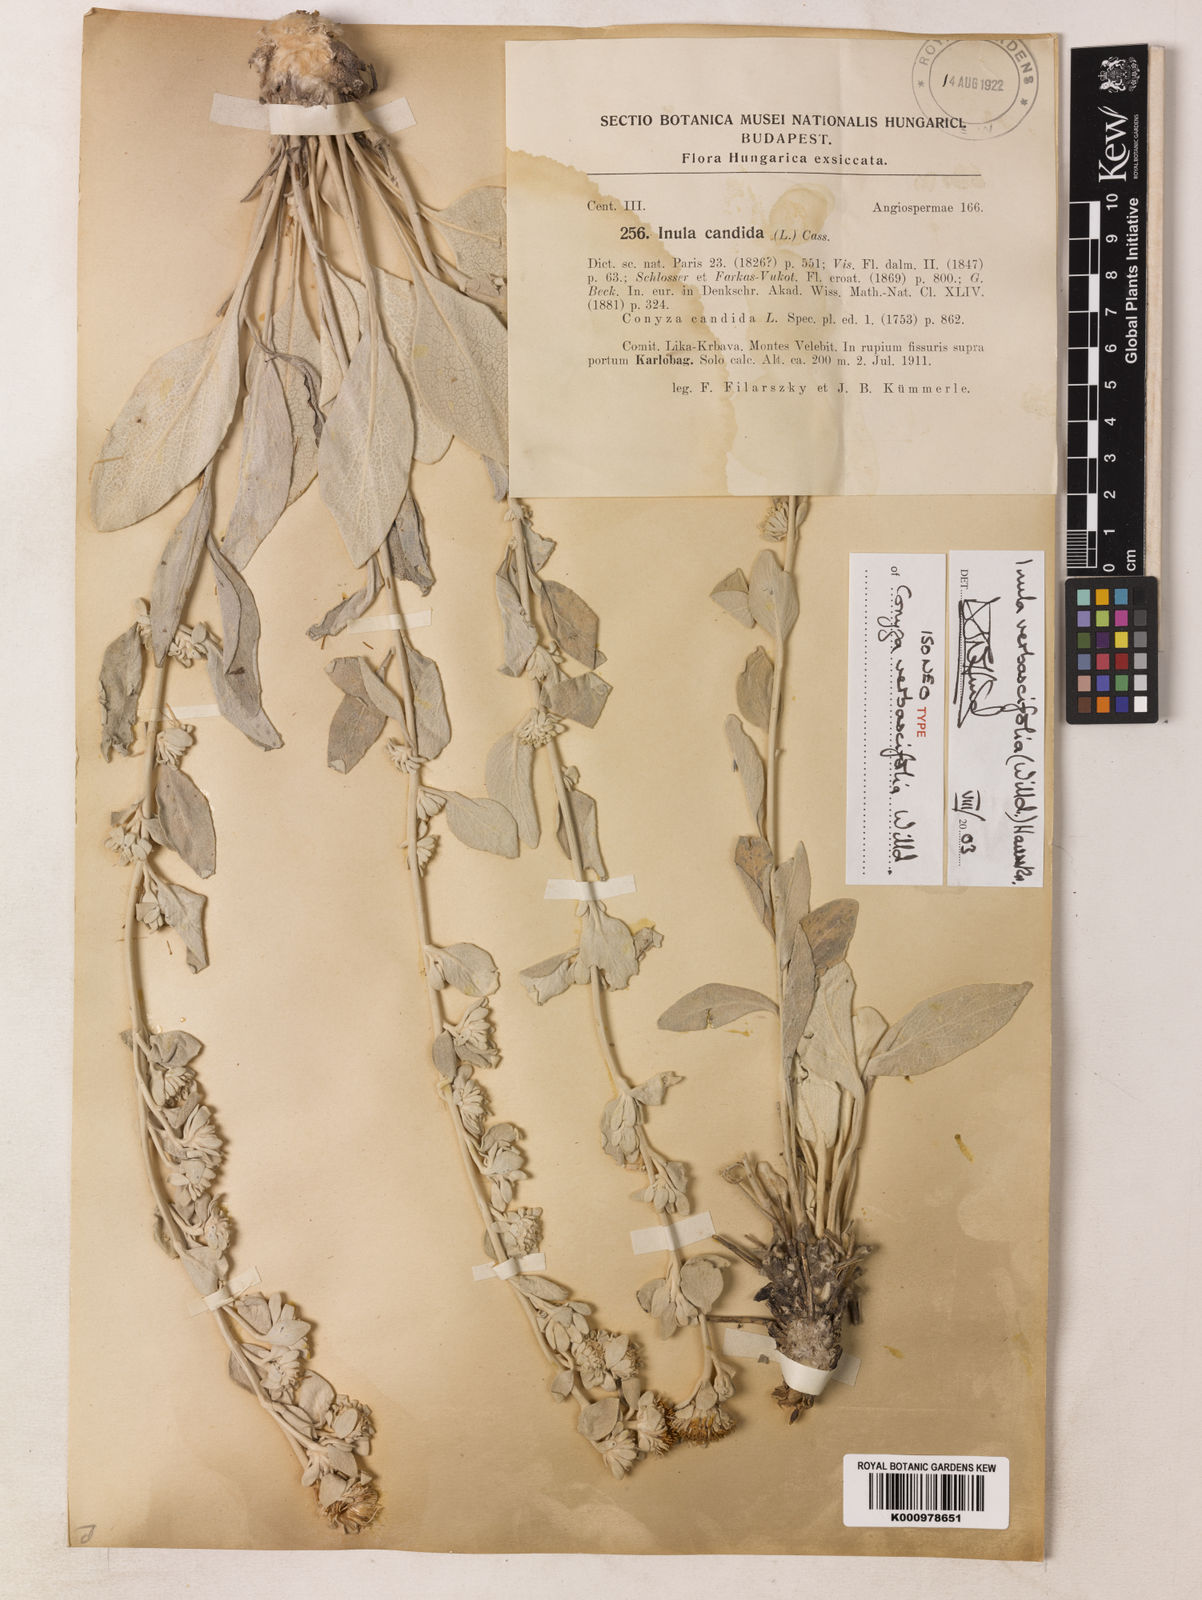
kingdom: Plantae
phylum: Tracheophyta
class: Magnoliopsida
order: Asterales
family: Asteraceae
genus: Pentanema
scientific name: Pentanema verbascifolium
